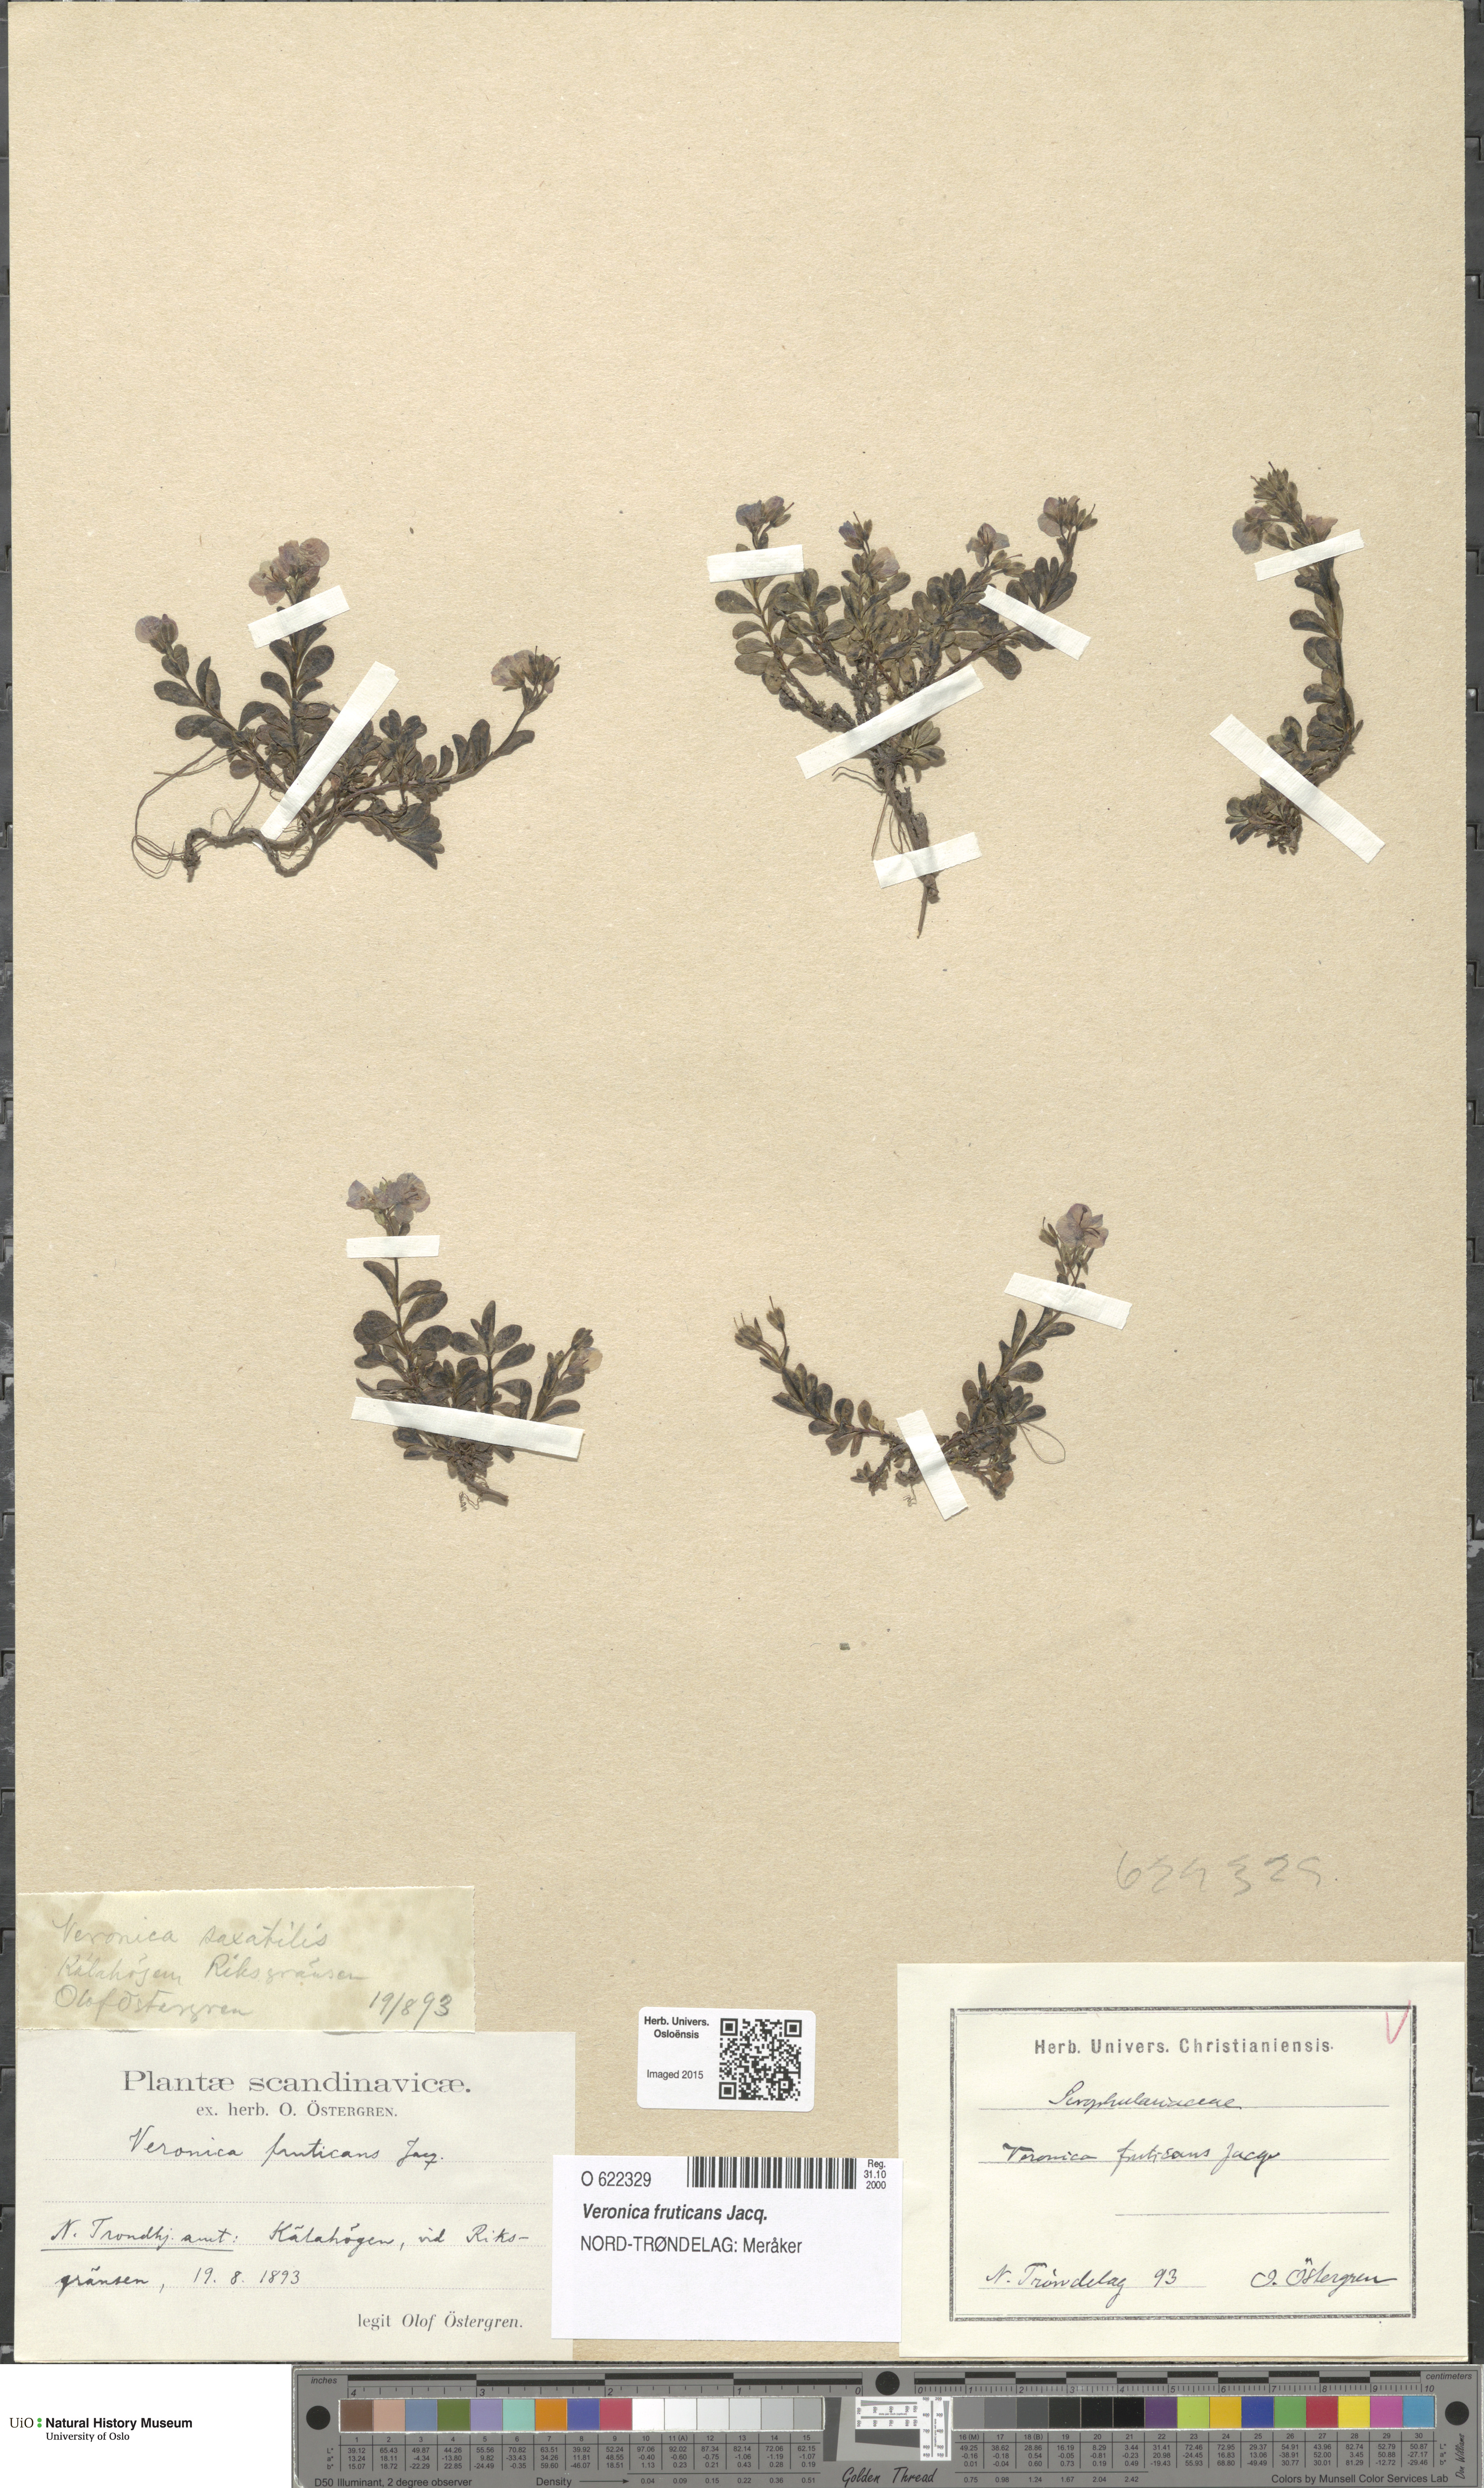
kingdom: Plantae
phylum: Tracheophyta
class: Magnoliopsida
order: Lamiales
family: Plantaginaceae
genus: Veronica
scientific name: Veronica fruticans
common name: Rock speedwell
